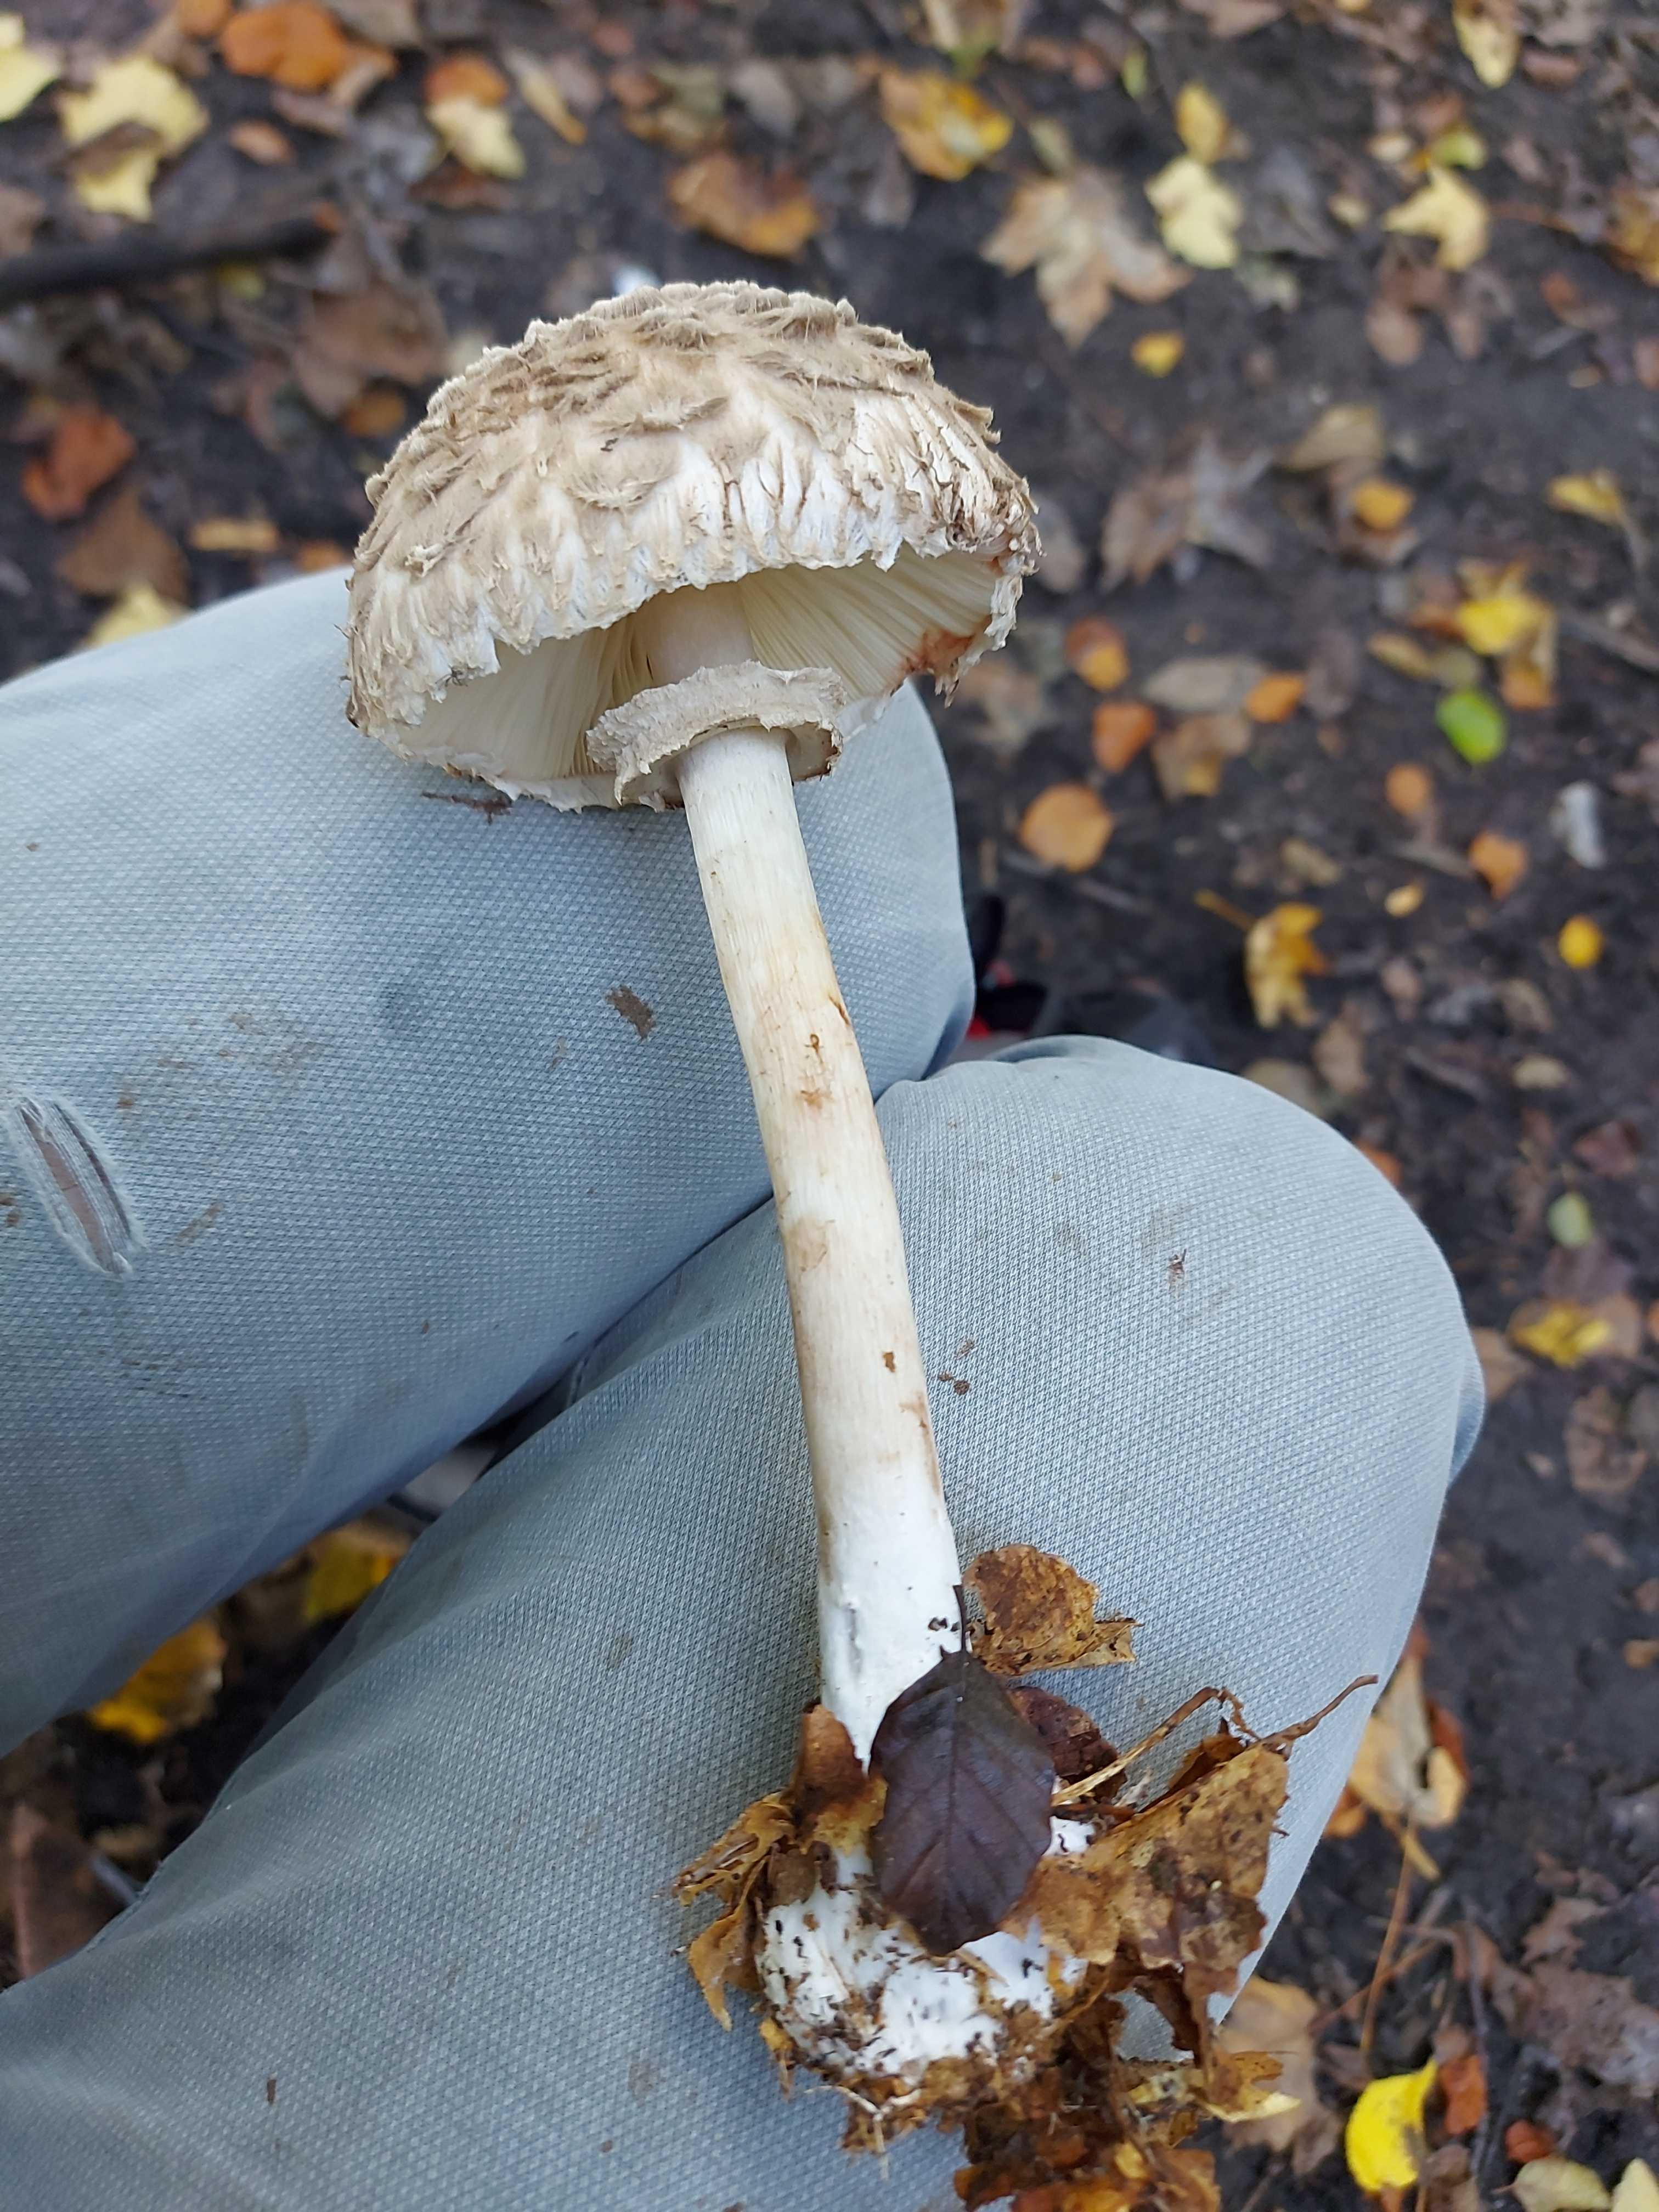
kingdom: Fungi
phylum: Basidiomycota
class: Agaricomycetes
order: Agaricales
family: Agaricaceae
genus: Chlorophyllum
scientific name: Chlorophyllum olivieri
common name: almindelig rabarberhat
